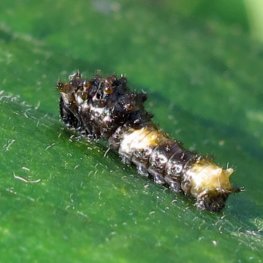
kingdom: Animalia
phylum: Arthropoda
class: Insecta
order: Lepidoptera
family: Papilionidae
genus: Papilio
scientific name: Papilio cresphontes
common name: Eastern Giant Swallowtail
